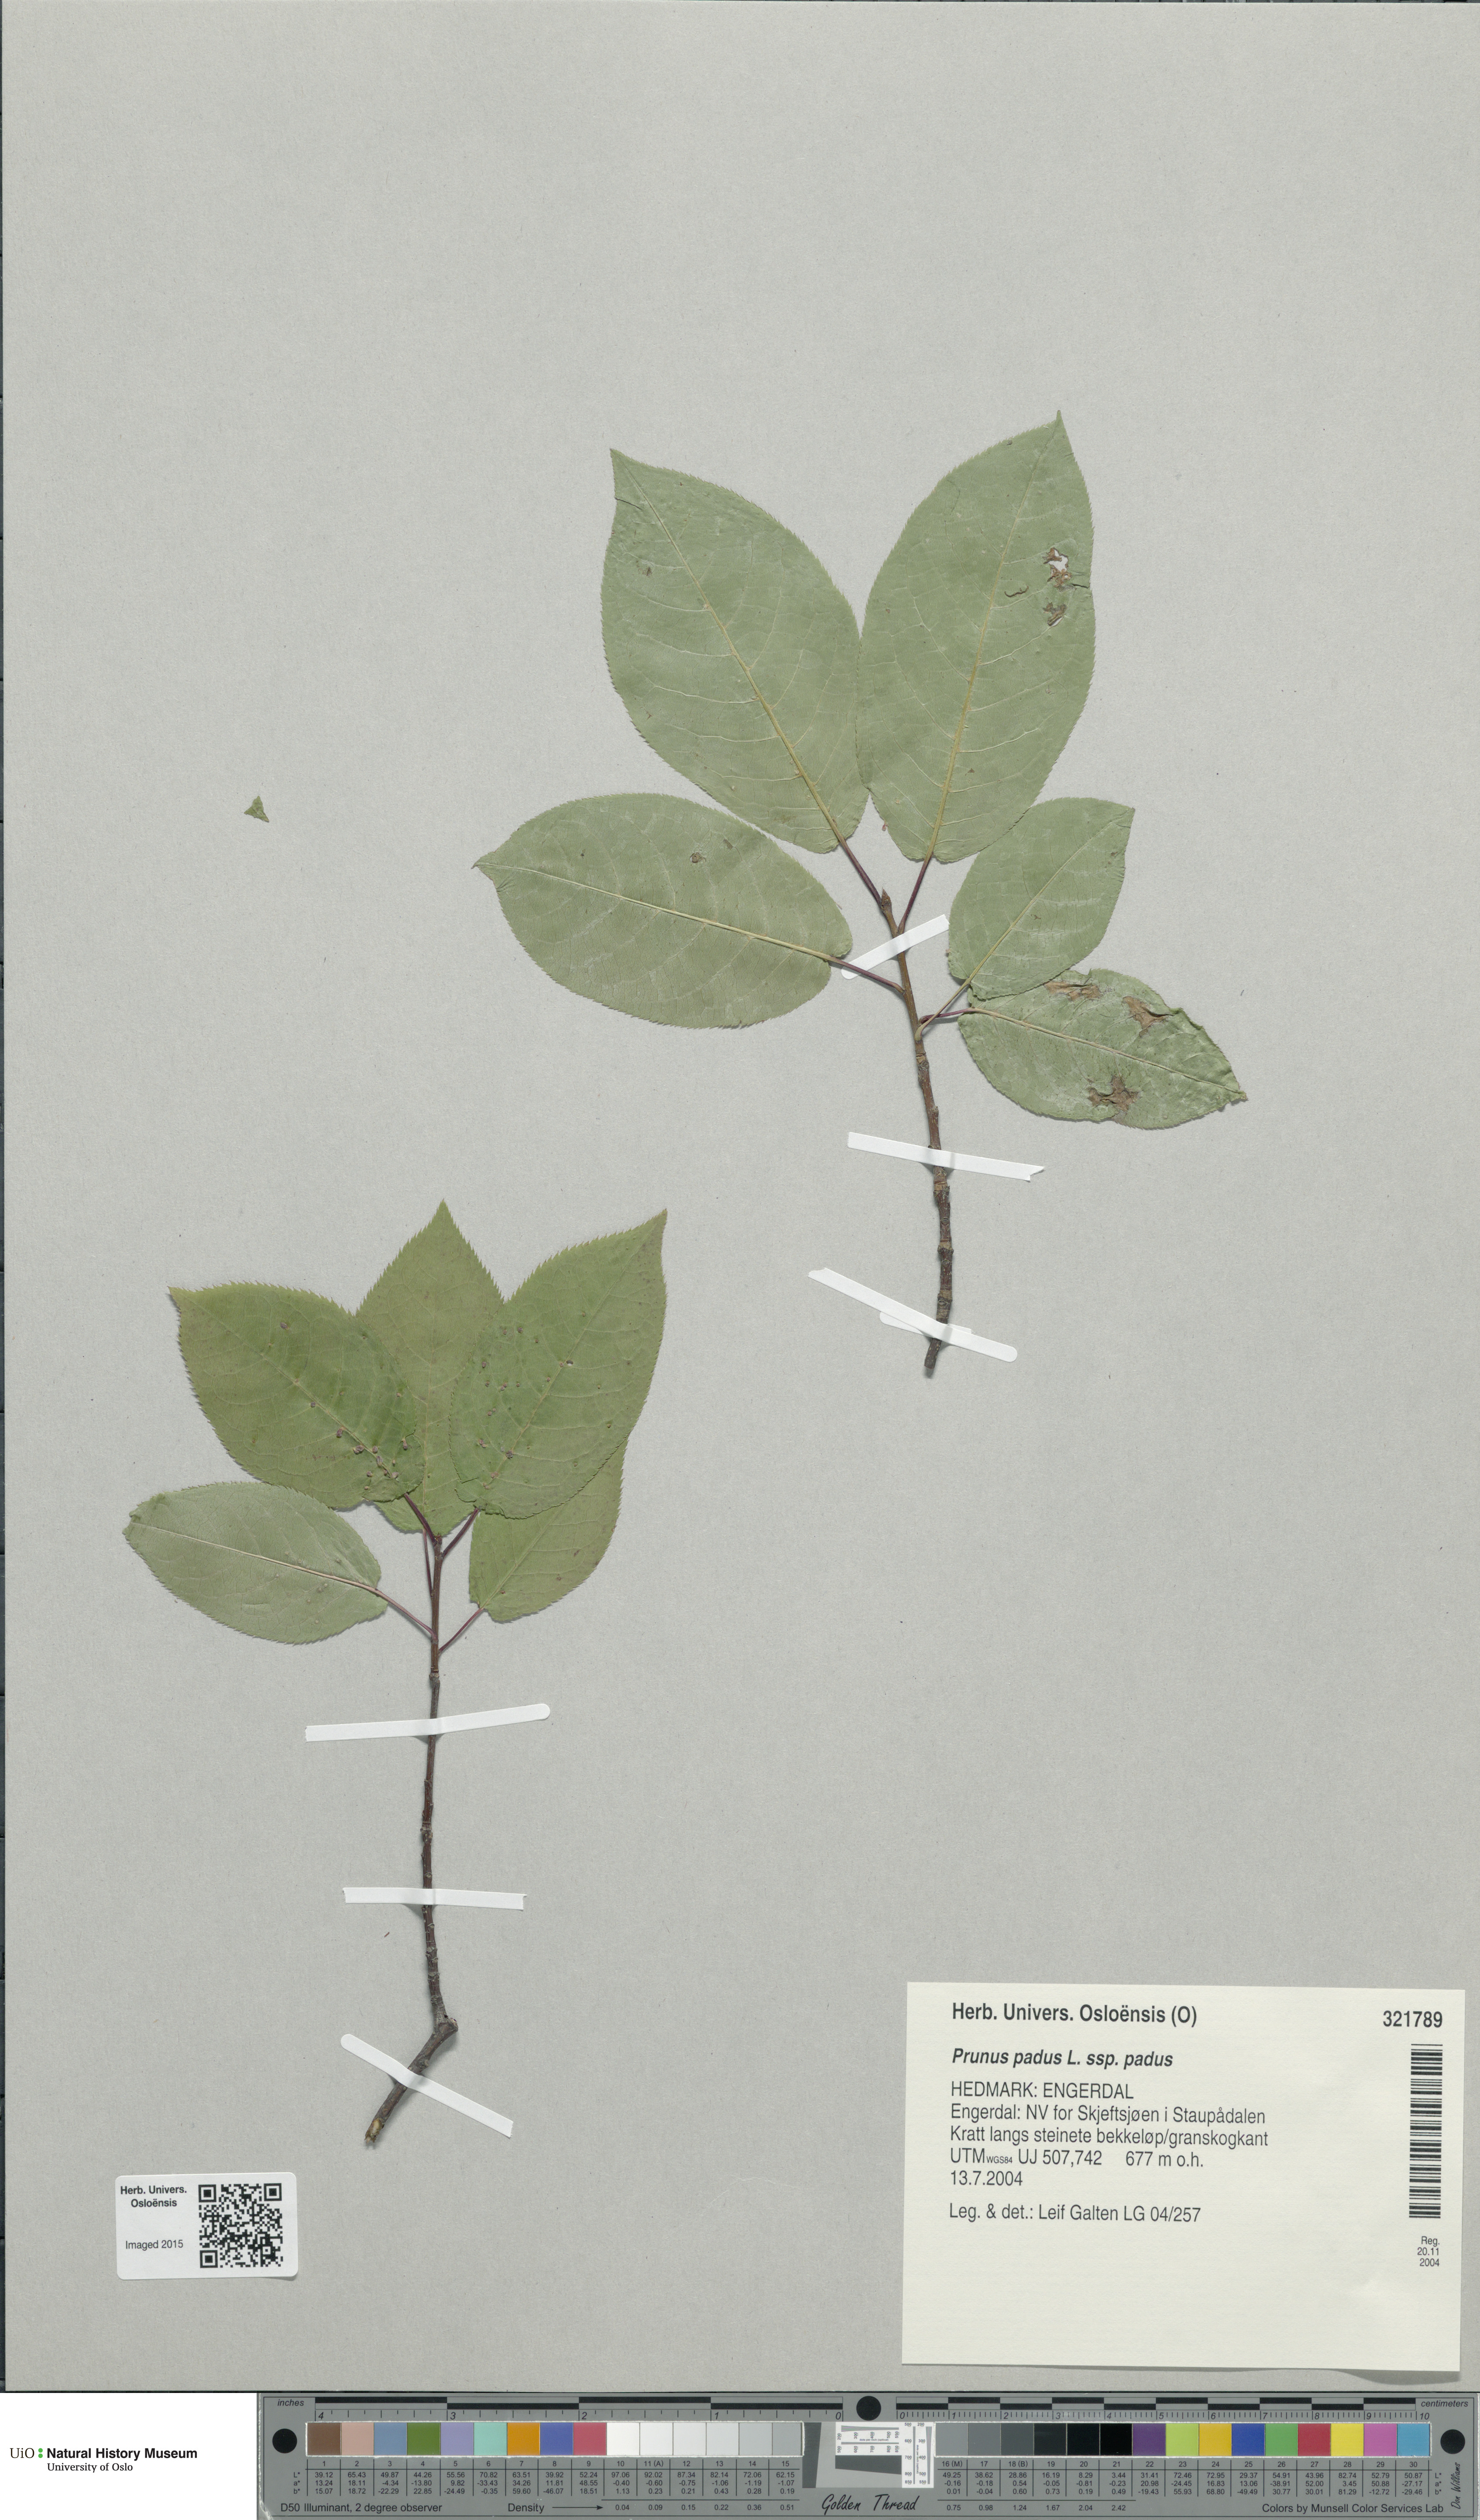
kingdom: Plantae
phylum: Tracheophyta
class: Magnoliopsida
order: Rosales
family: Rosaceae
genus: Prunus
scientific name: Prunus padus
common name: Bird cherry
